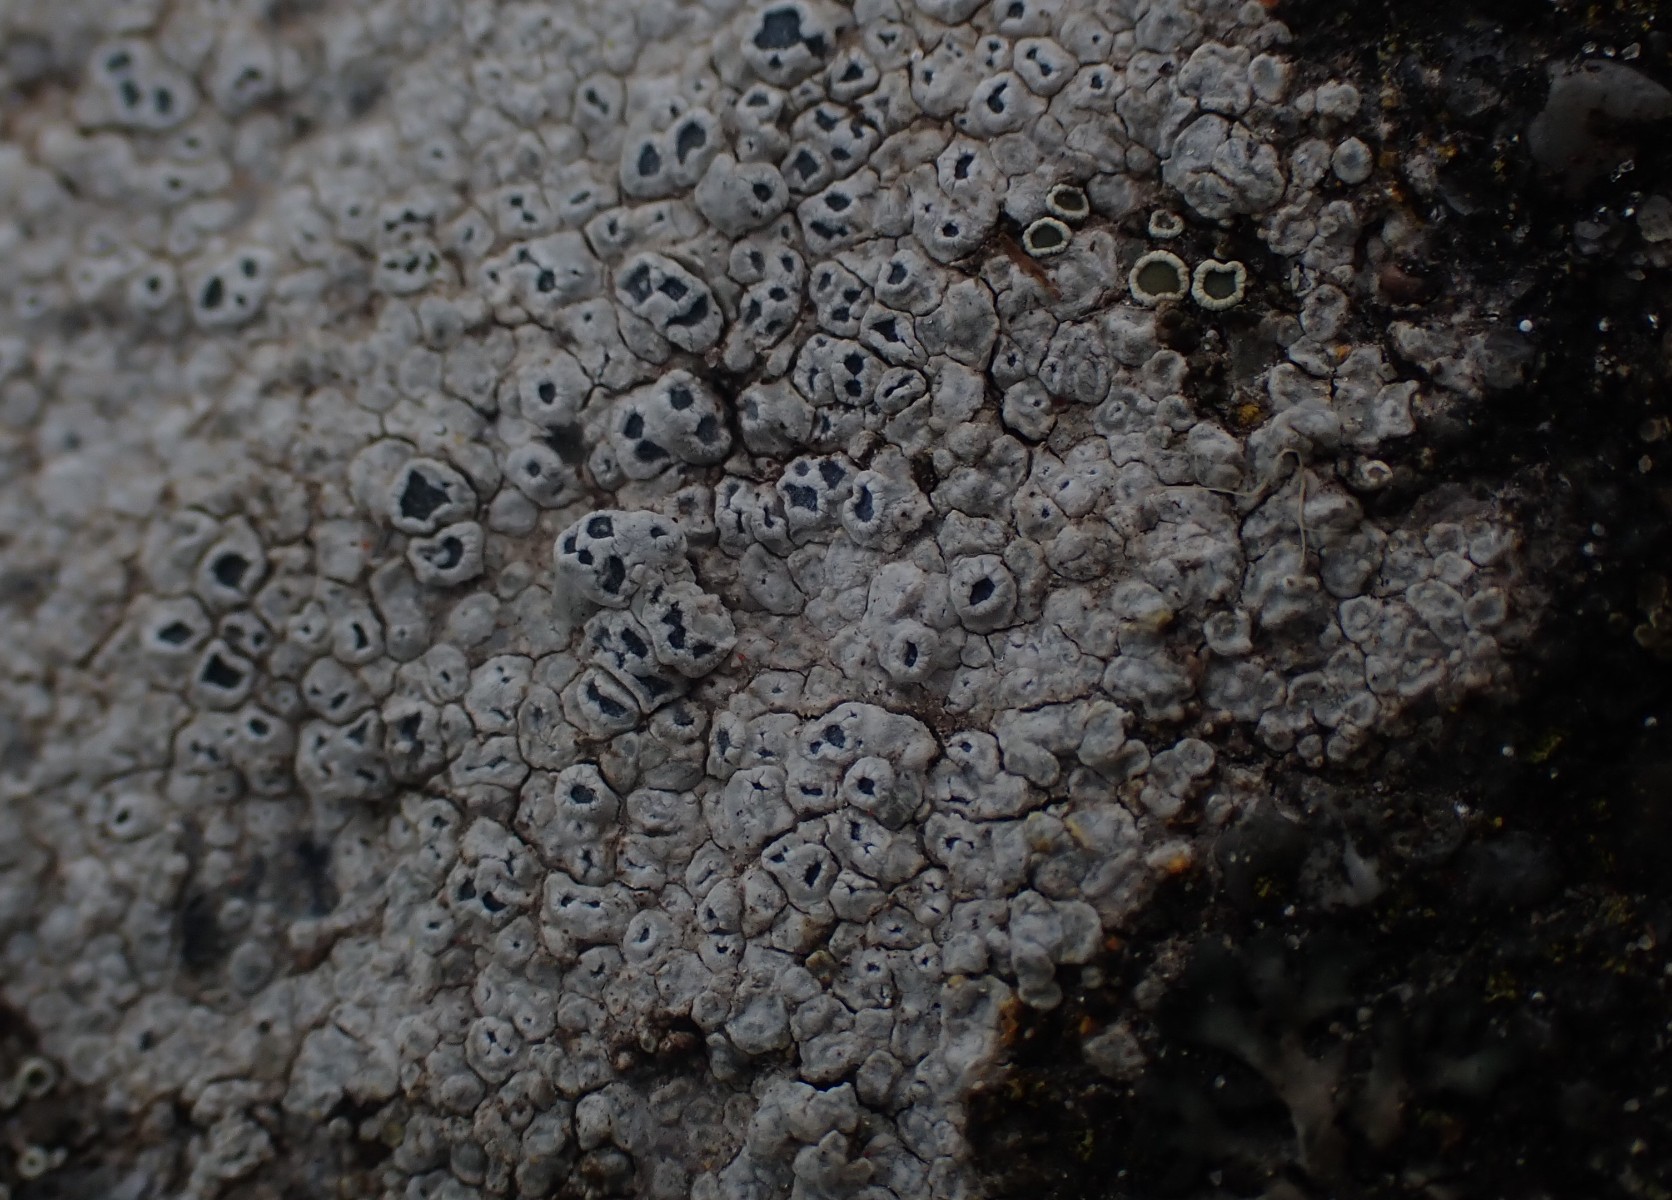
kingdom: Fungi
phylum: Ascomycota
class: Lecanoromycetes
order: Pertusariales
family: Megasporaceae
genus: Circinaria
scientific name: Circinaria contorta
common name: indviklet hulskivelav
